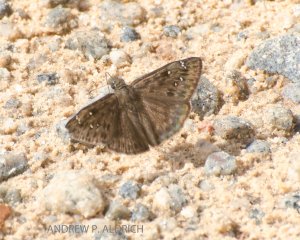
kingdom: Animalia
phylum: Arthropoda
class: Insecta
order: Lepidoptera
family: Hesperiidae
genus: Gesta
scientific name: Gesta
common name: Horace's Duskywing
